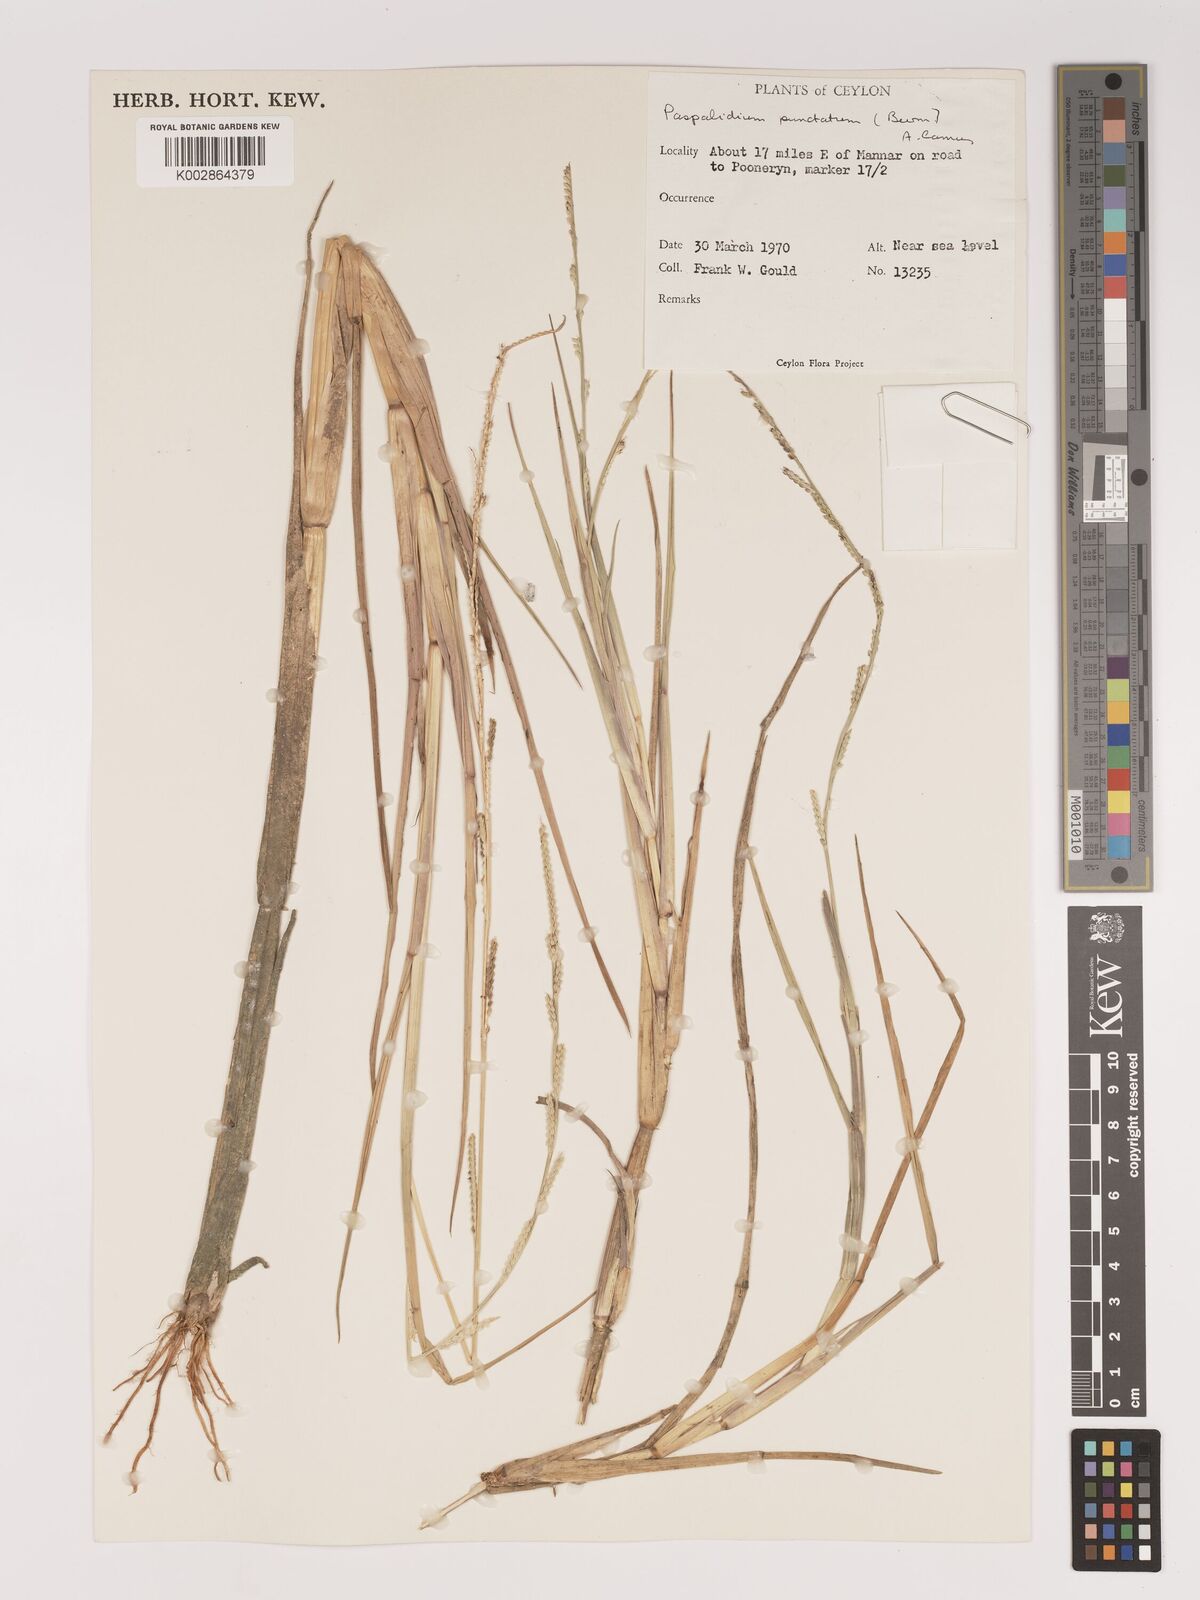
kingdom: Plantae
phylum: Tracheophyta
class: Liliopsida
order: Poales
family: Poaceae
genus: Setaria
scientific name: Setaria punctata
